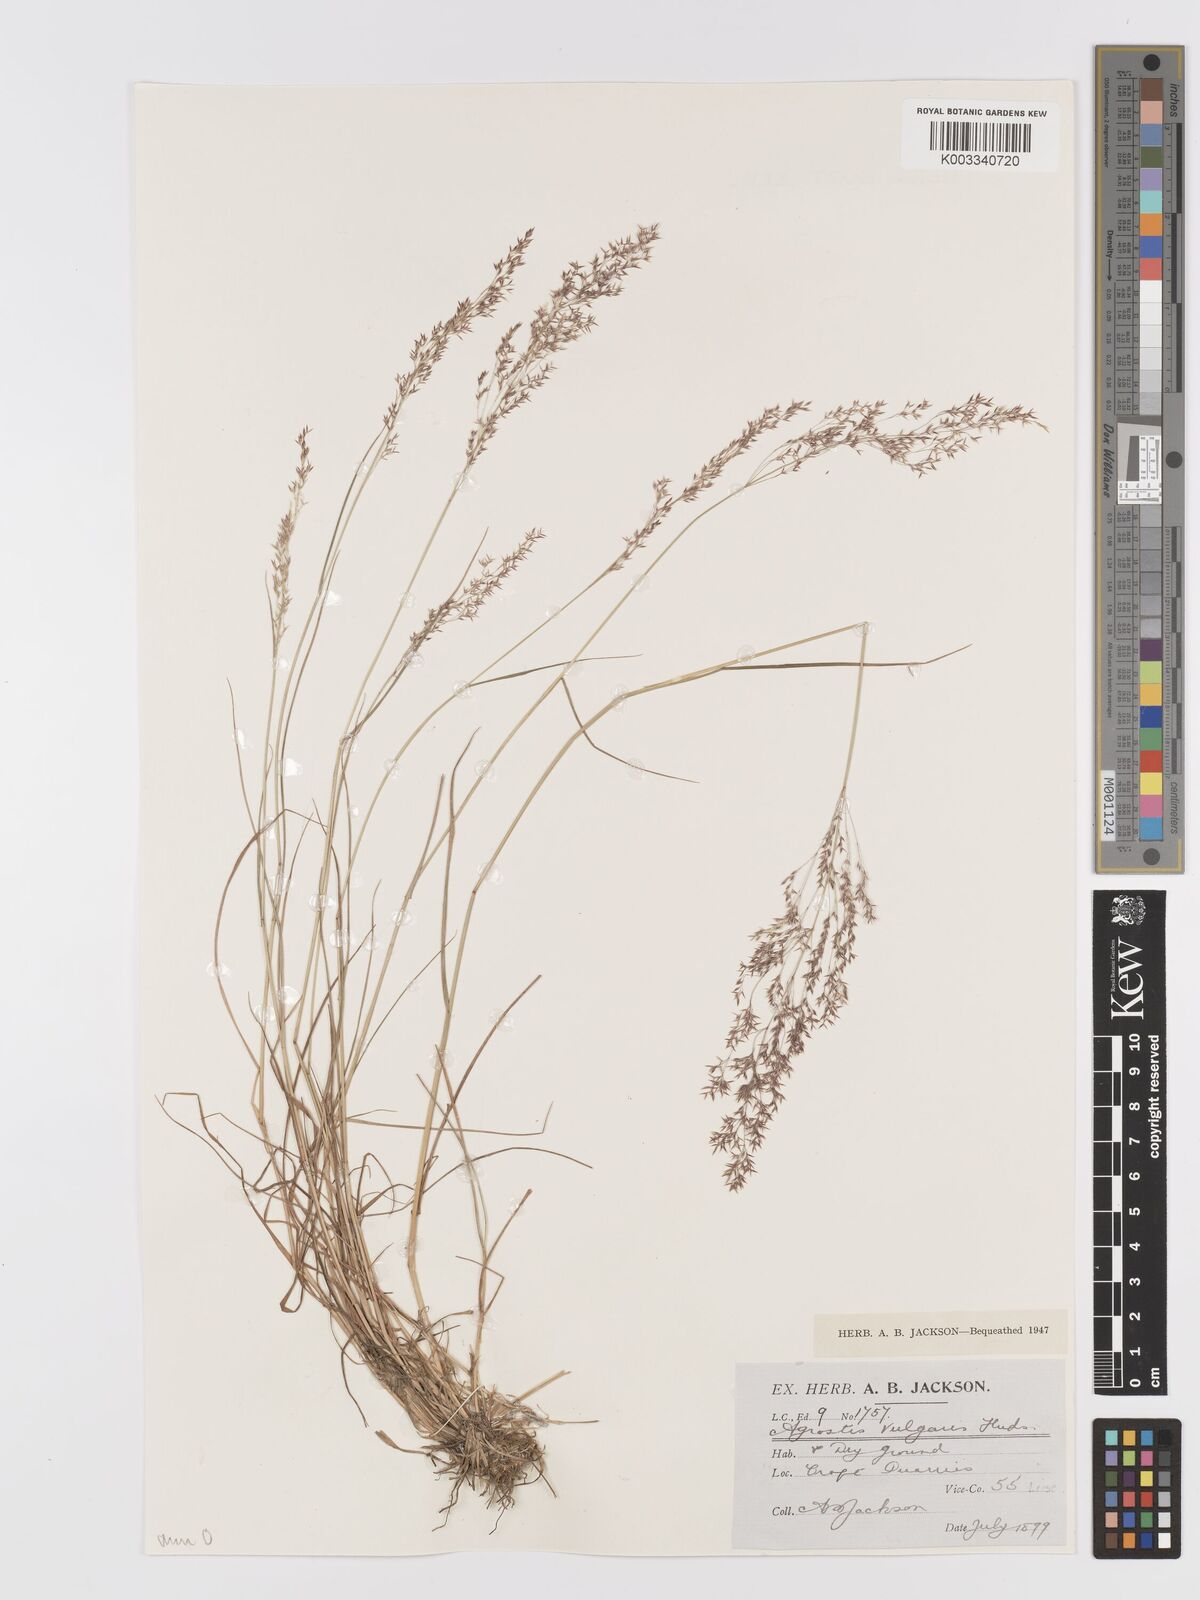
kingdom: Plantae
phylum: Tracheophyta
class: Liliopsida
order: Poales
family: Poaceae
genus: Agrostis
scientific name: Agrostis capillaris
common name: Colonial bentgrass
